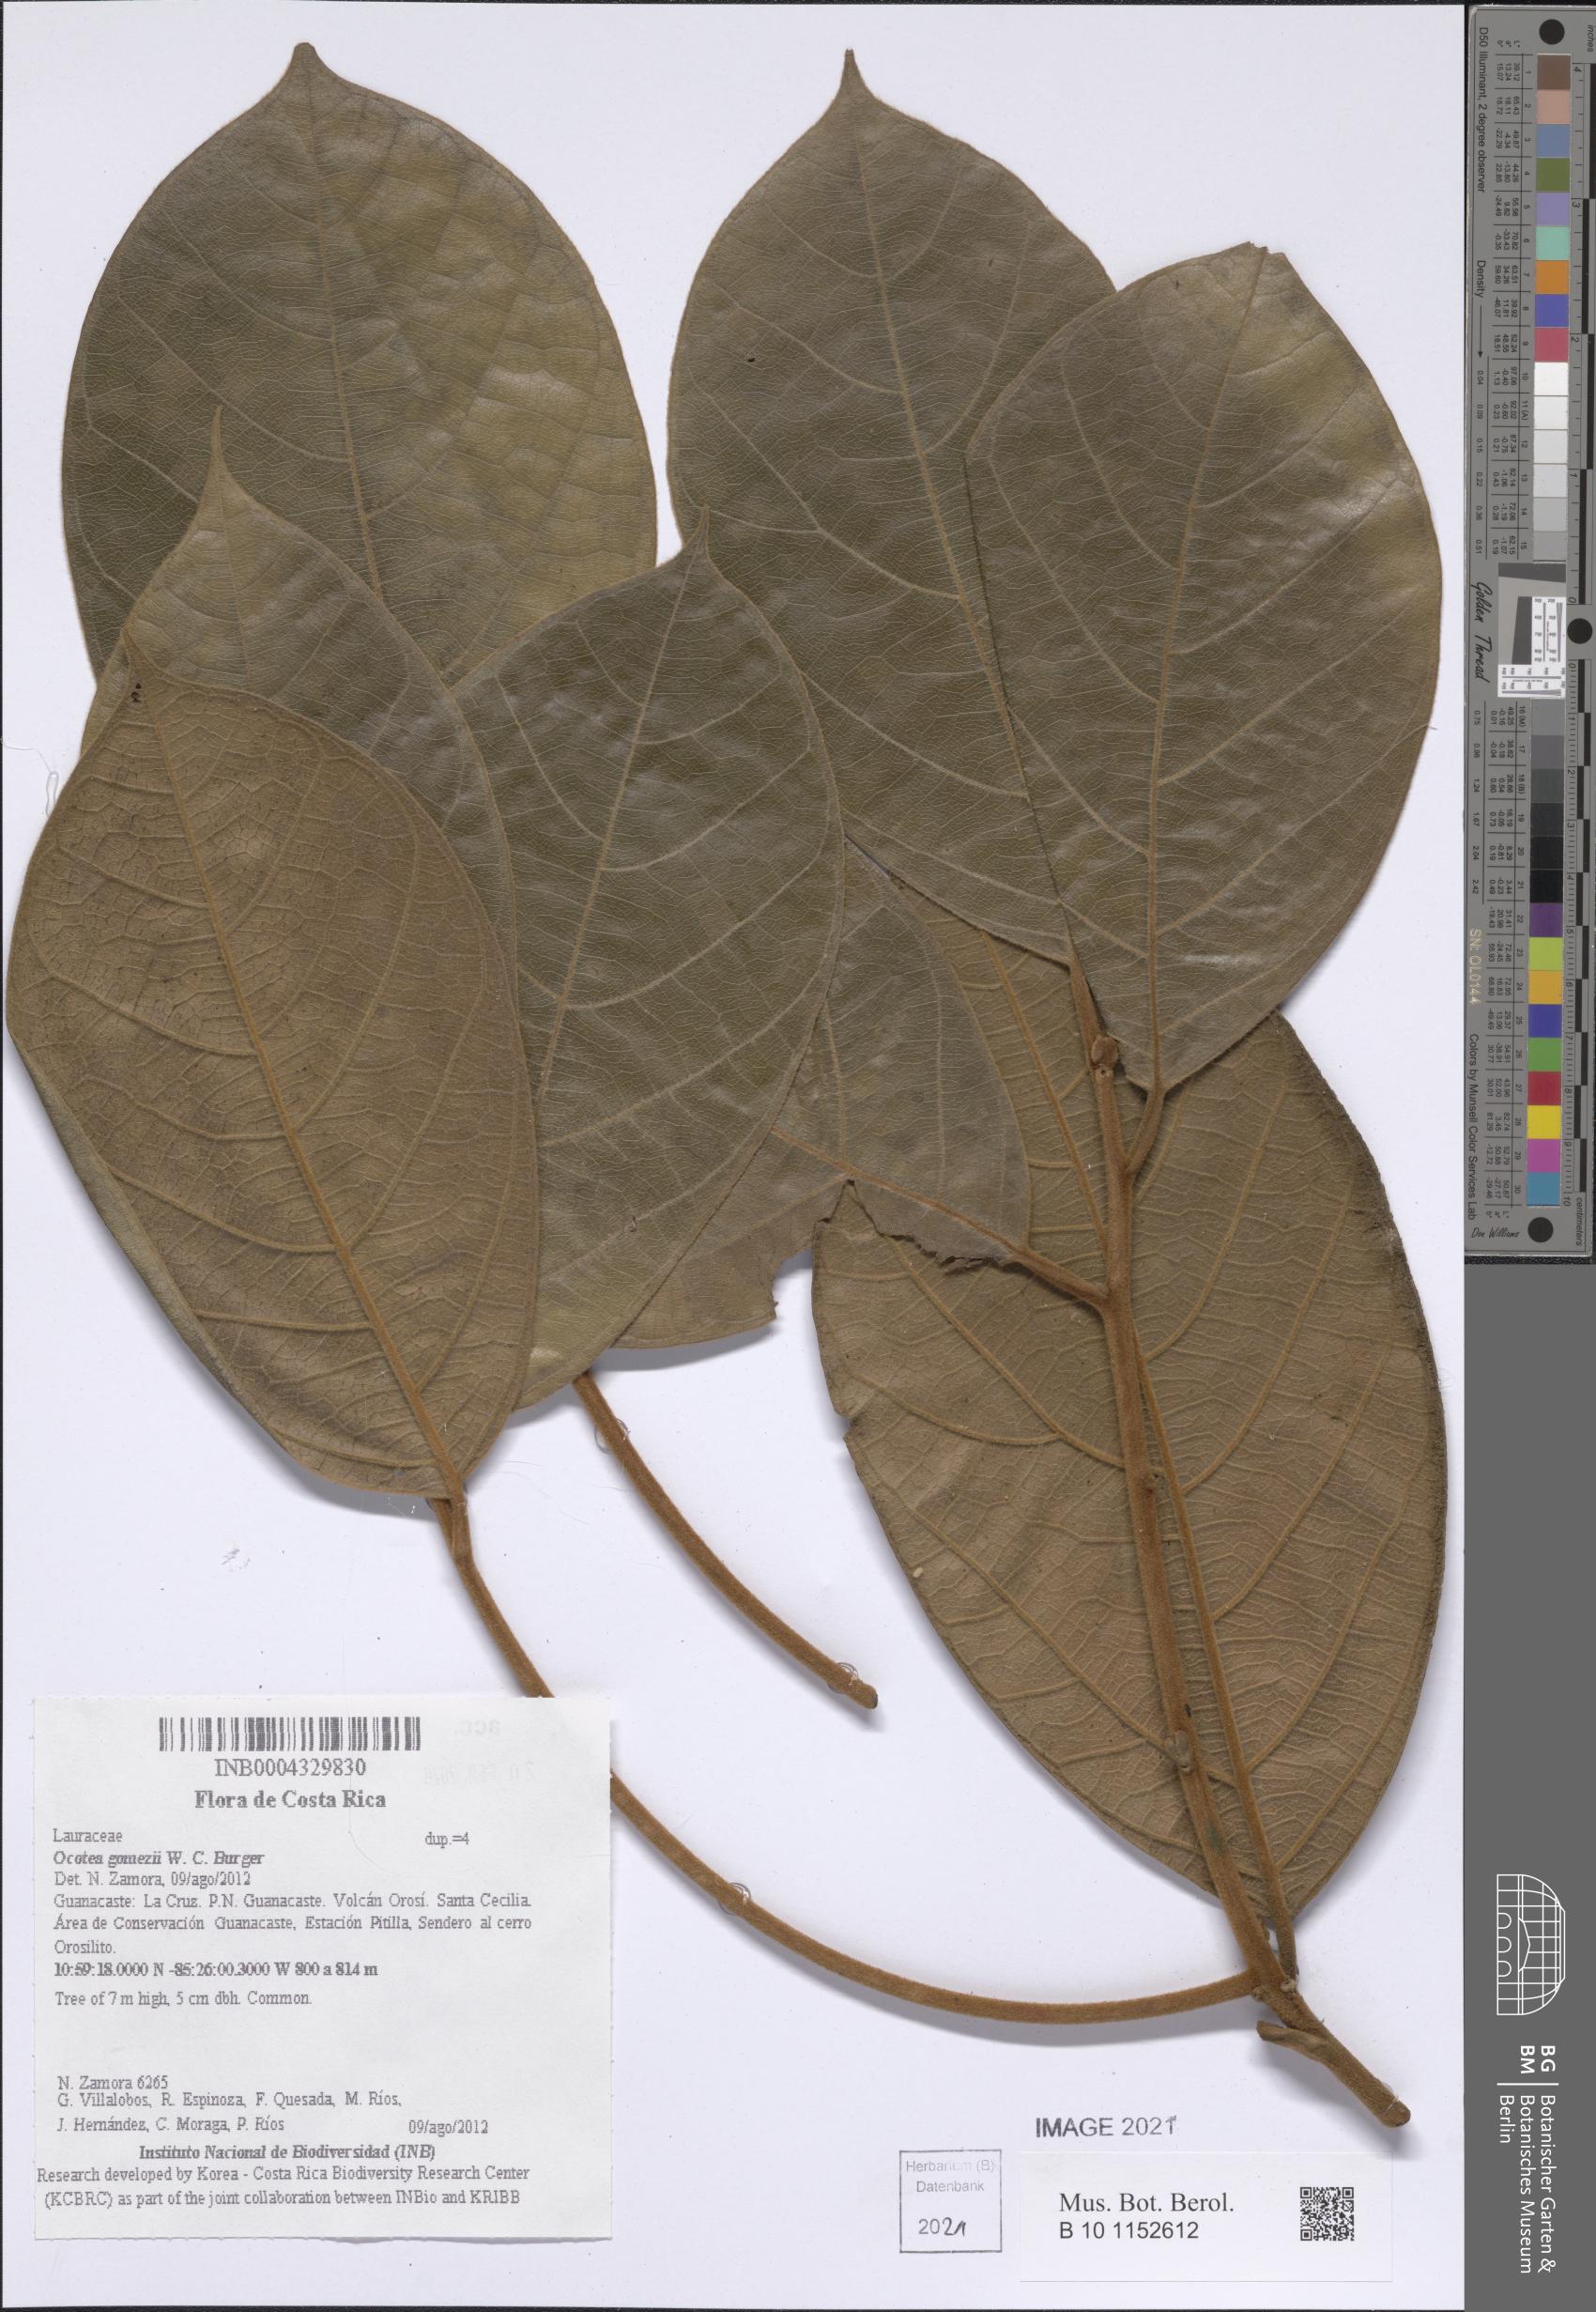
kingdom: Plantae
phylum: Tracheophyta
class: Magnoliopsida
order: Laurales
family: Lauraceae
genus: Ocotea
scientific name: Ocotea gomezii
